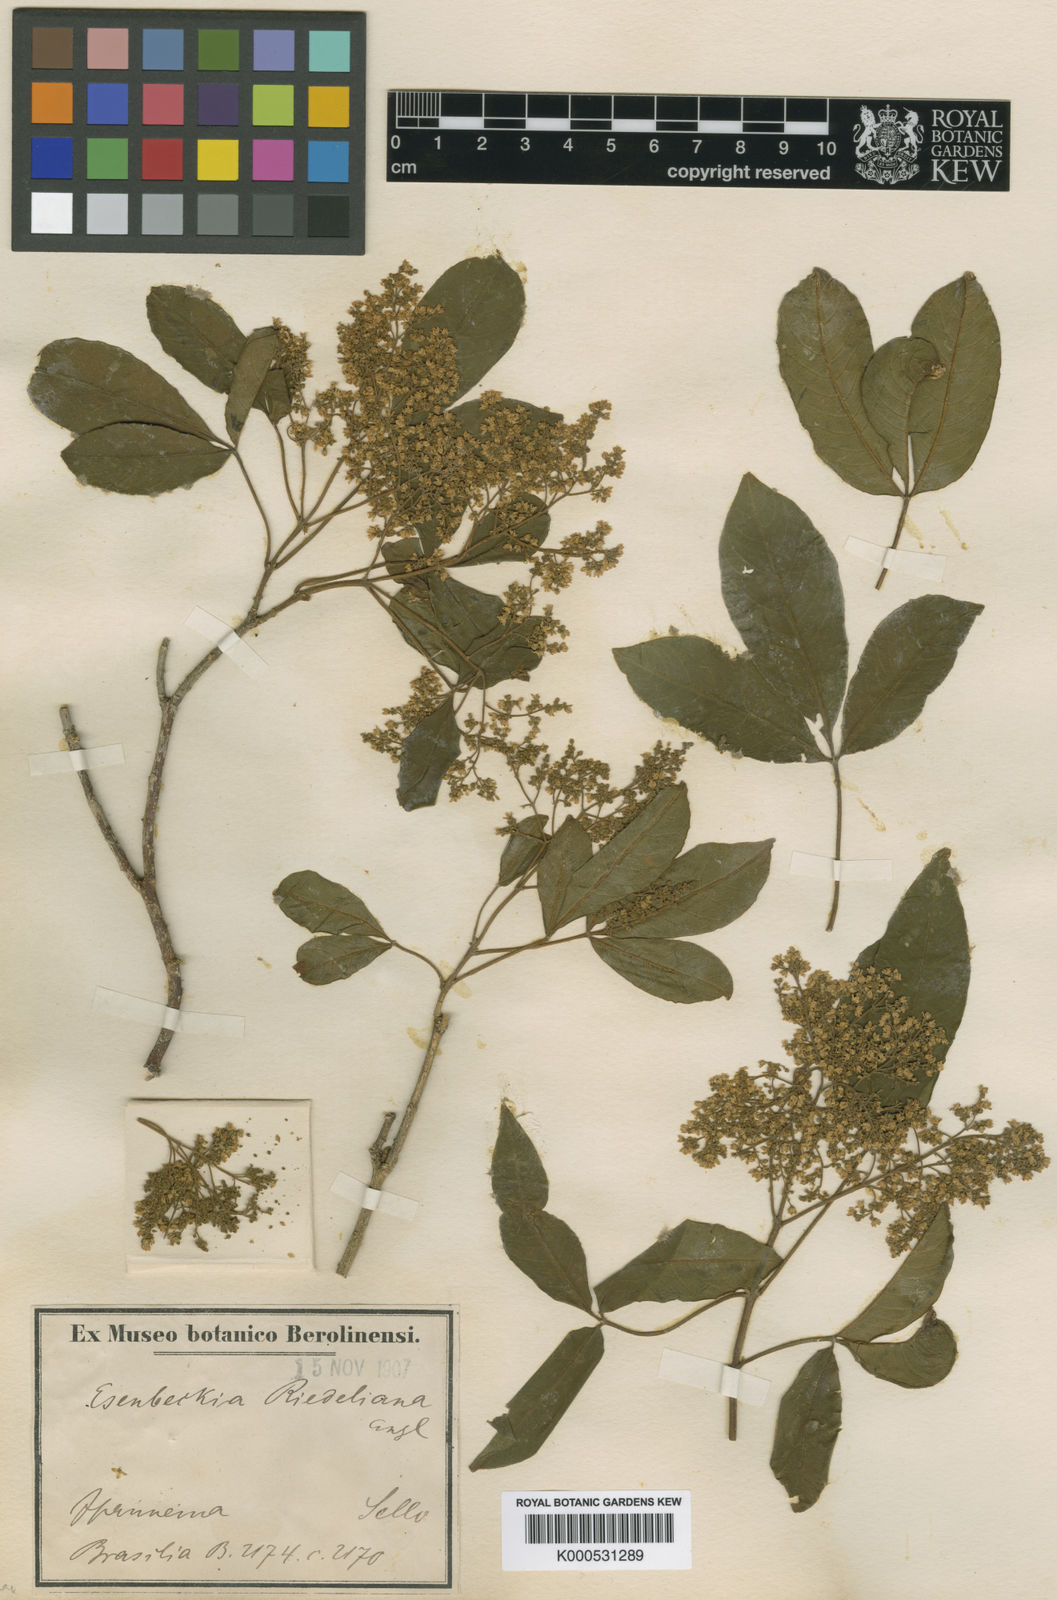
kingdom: Plantae
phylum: Tracheophyta
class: Magnoliopsida
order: Sapindales
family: Rutaceae
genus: Balfourodendron
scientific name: Balfourodendron riedelianum
